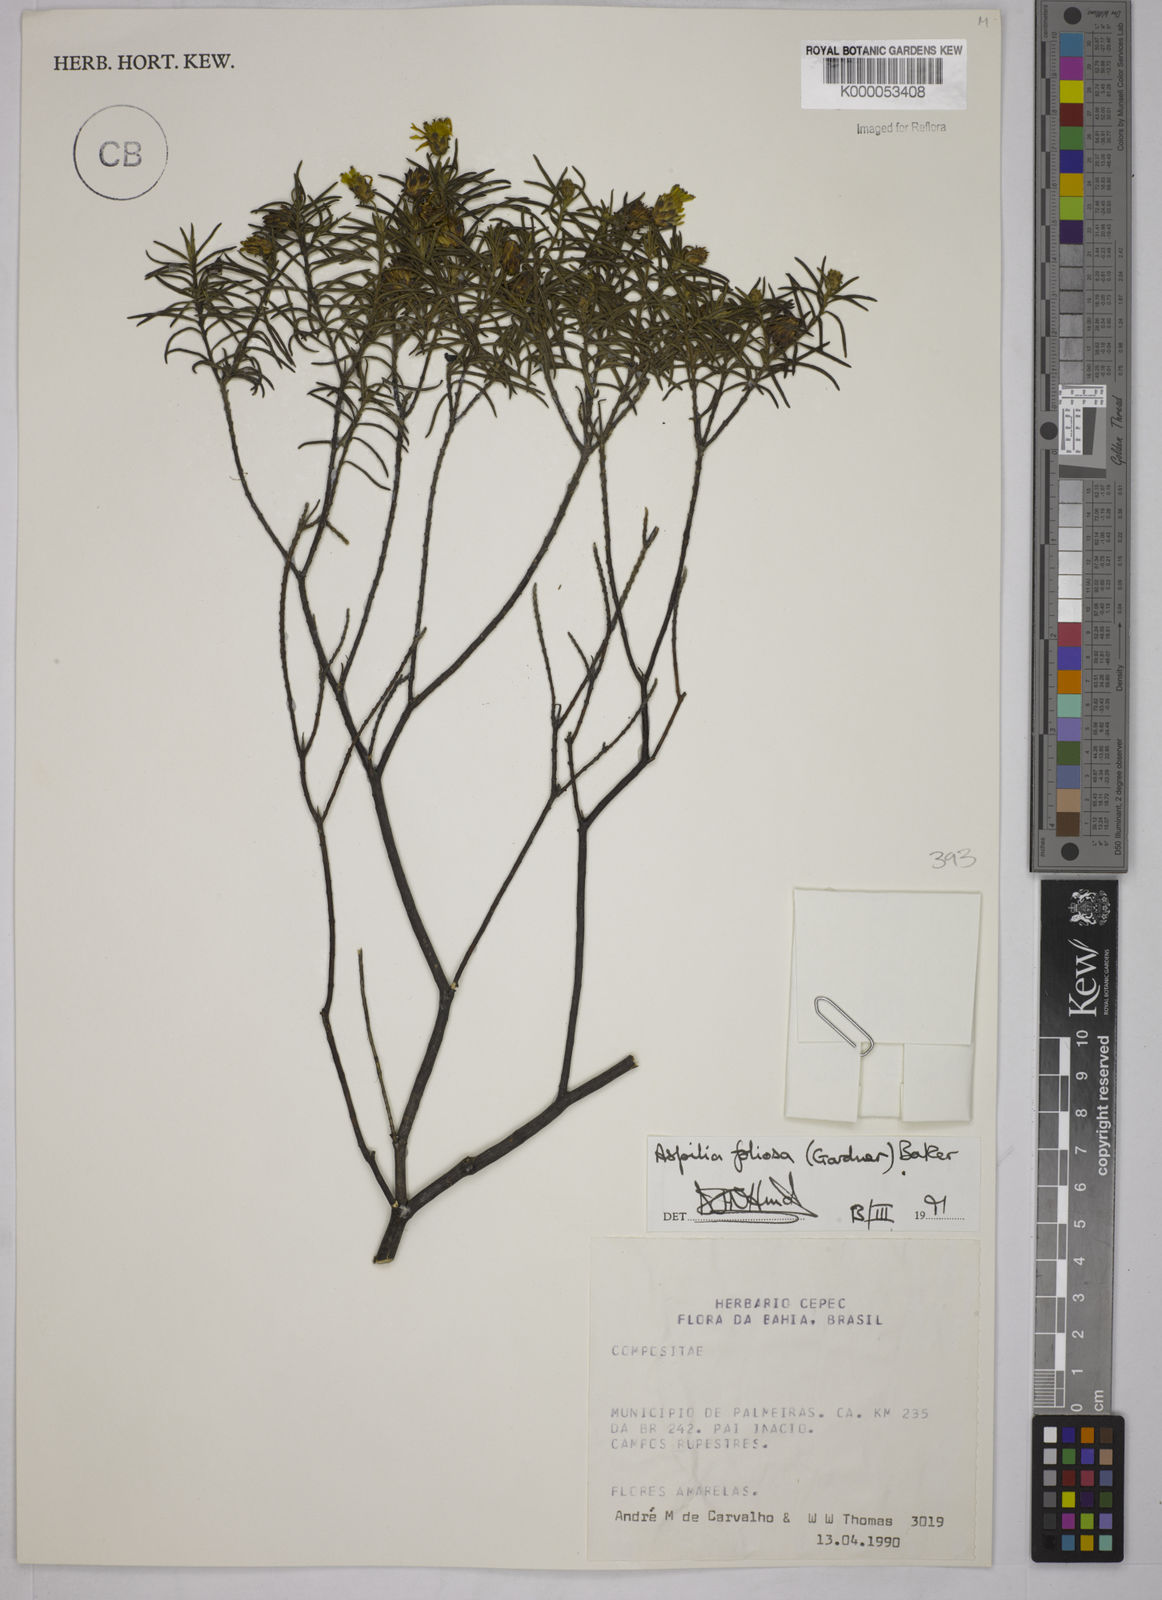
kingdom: Plantae
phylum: Tracheophyta
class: Magnoliopsida
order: Asterales
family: Asteraceae
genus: Aspilia
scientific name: Aspilia
